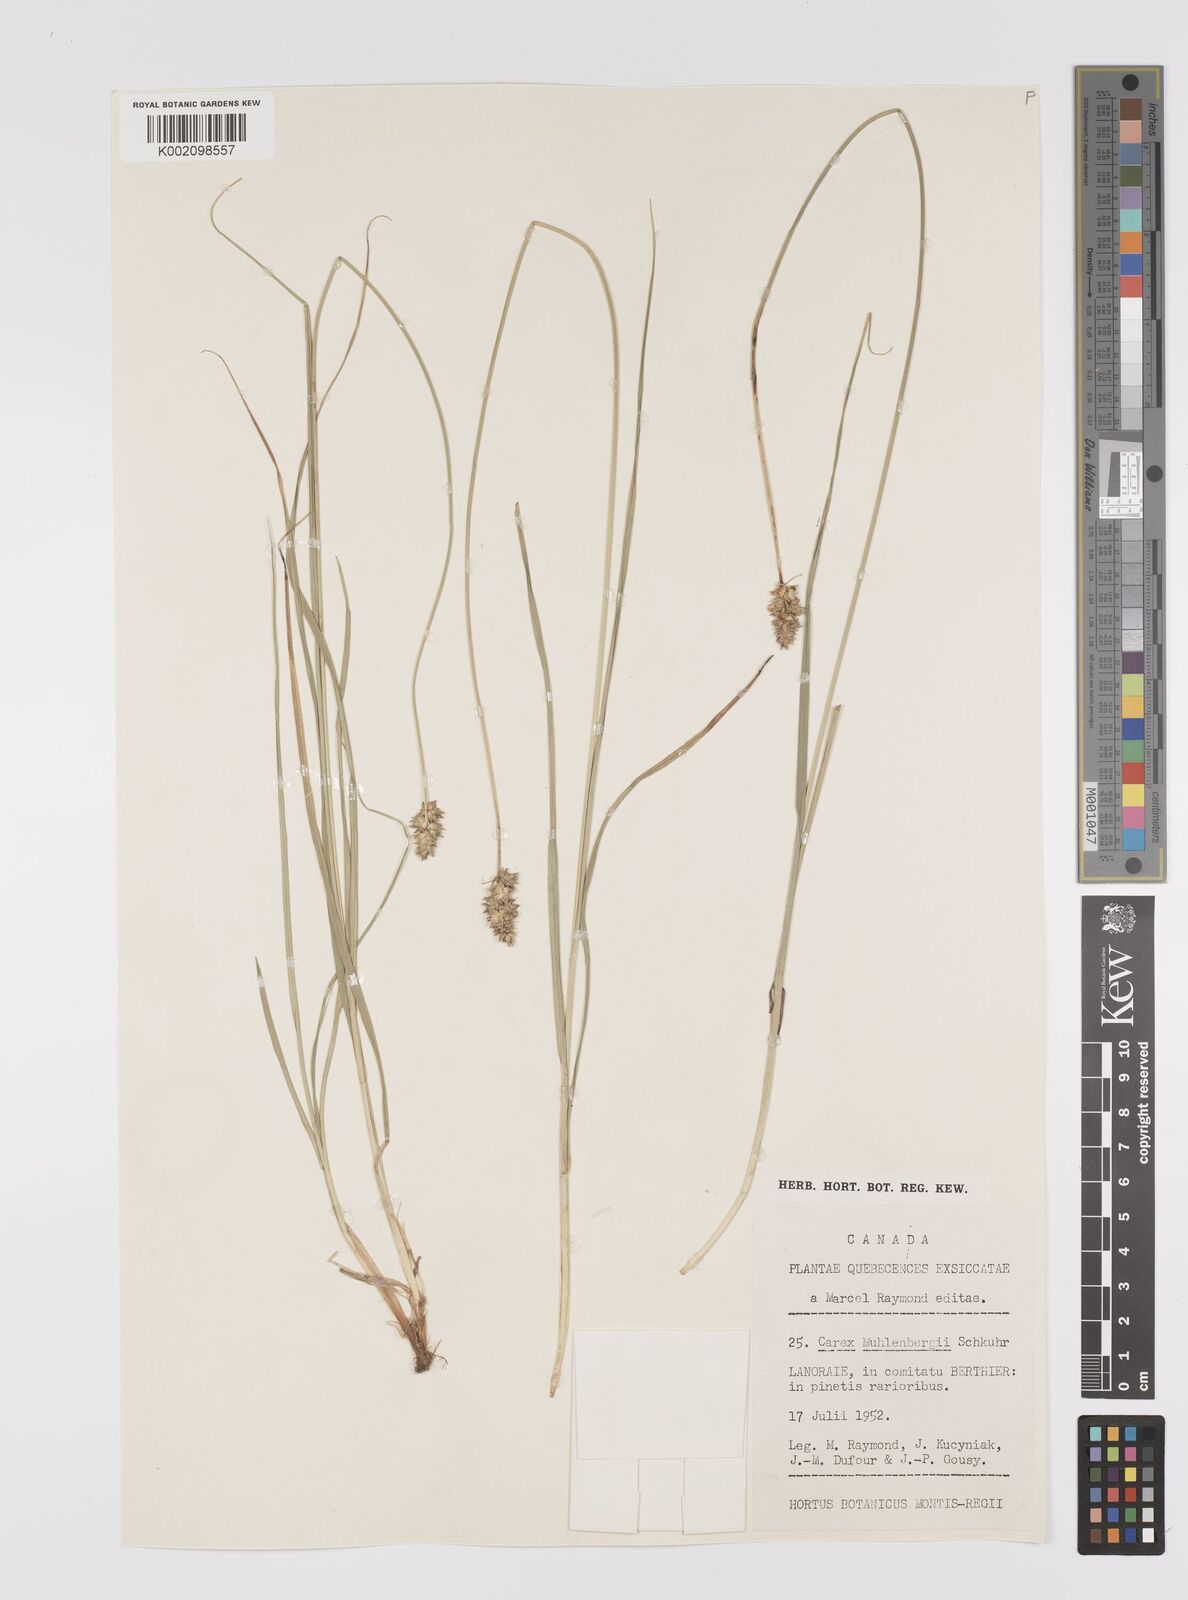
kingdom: Plantae
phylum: Tracheophyta
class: Liliopsida
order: Poales
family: Cyperaceae
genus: Carex
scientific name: Carex vulpinoidea
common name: American fox-sedge
